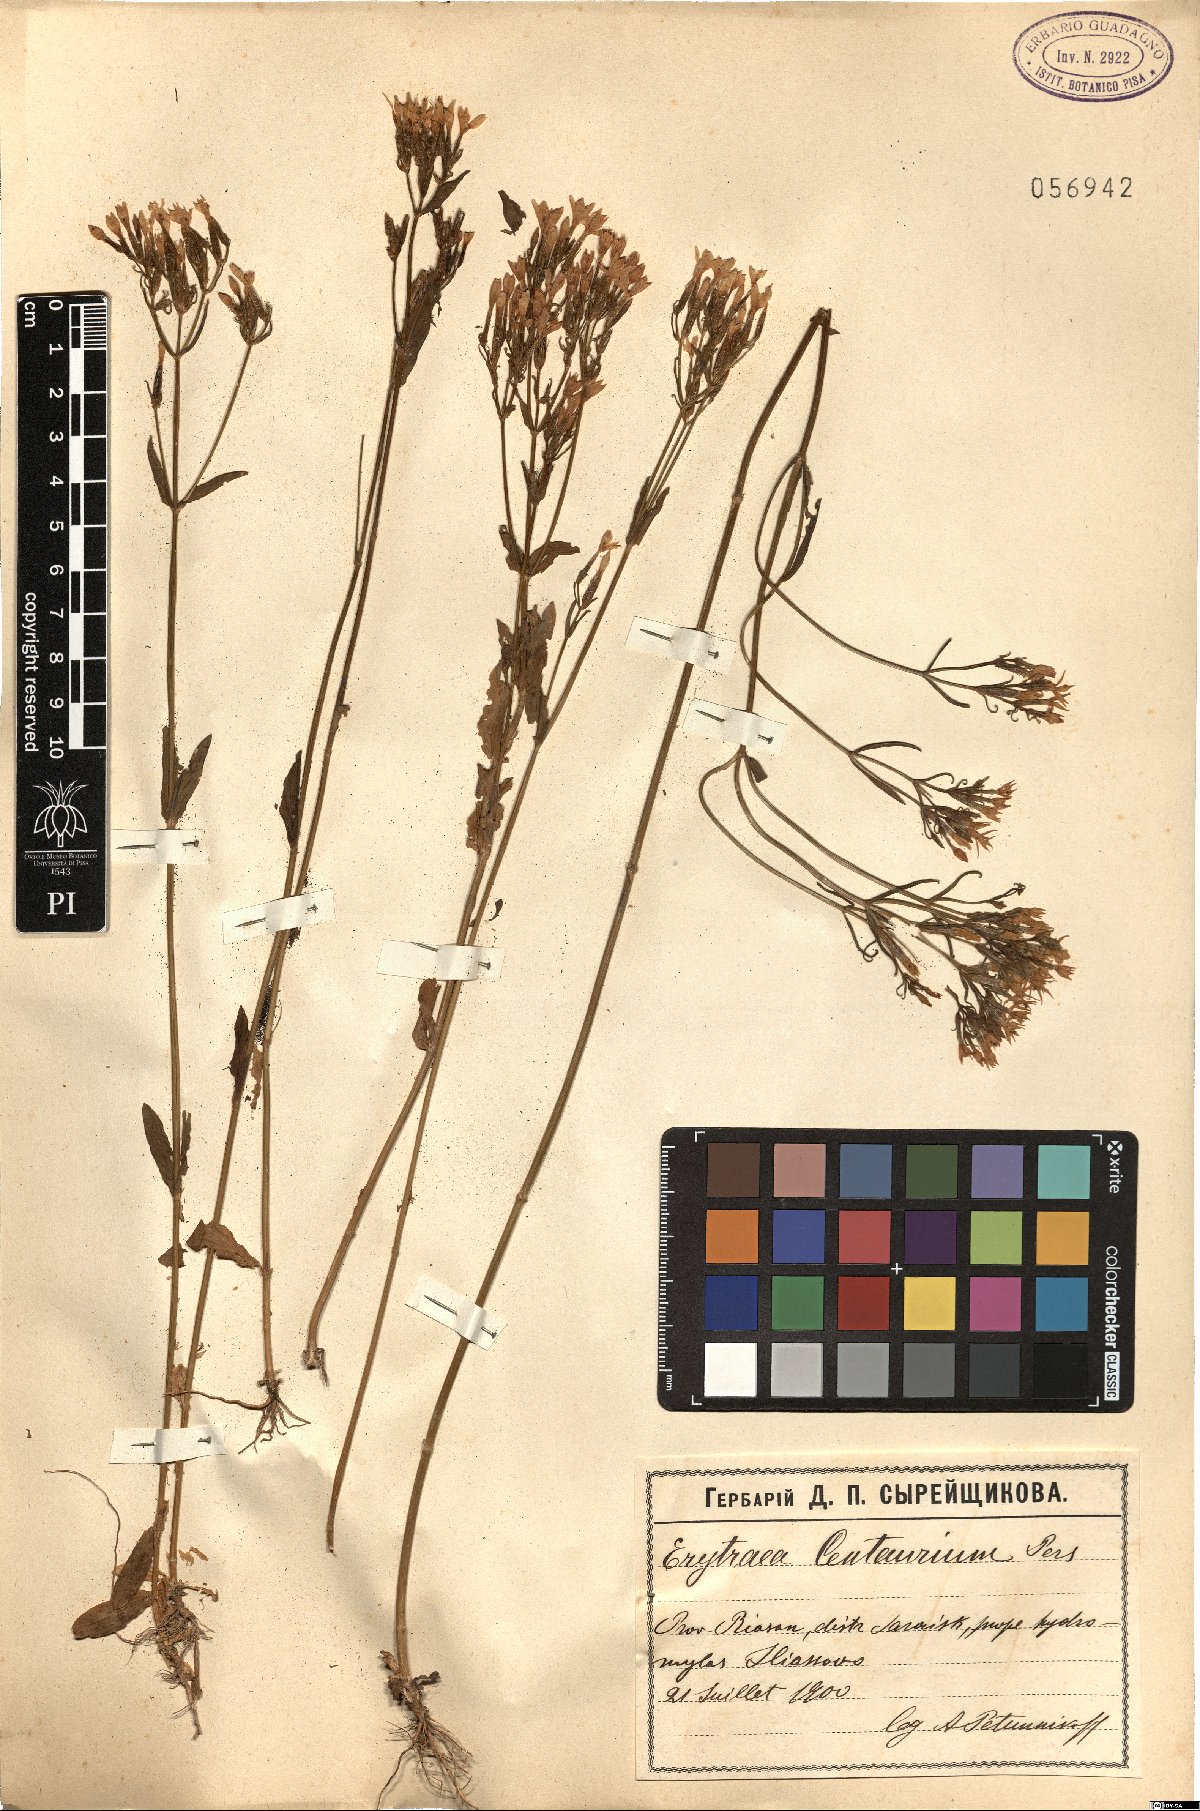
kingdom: Plantae
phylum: Tracheophyta
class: Magnoliopsida
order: Gentianales
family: Gentianaceae
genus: Centaurium
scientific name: Centaurium erythraea
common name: Common centaury
